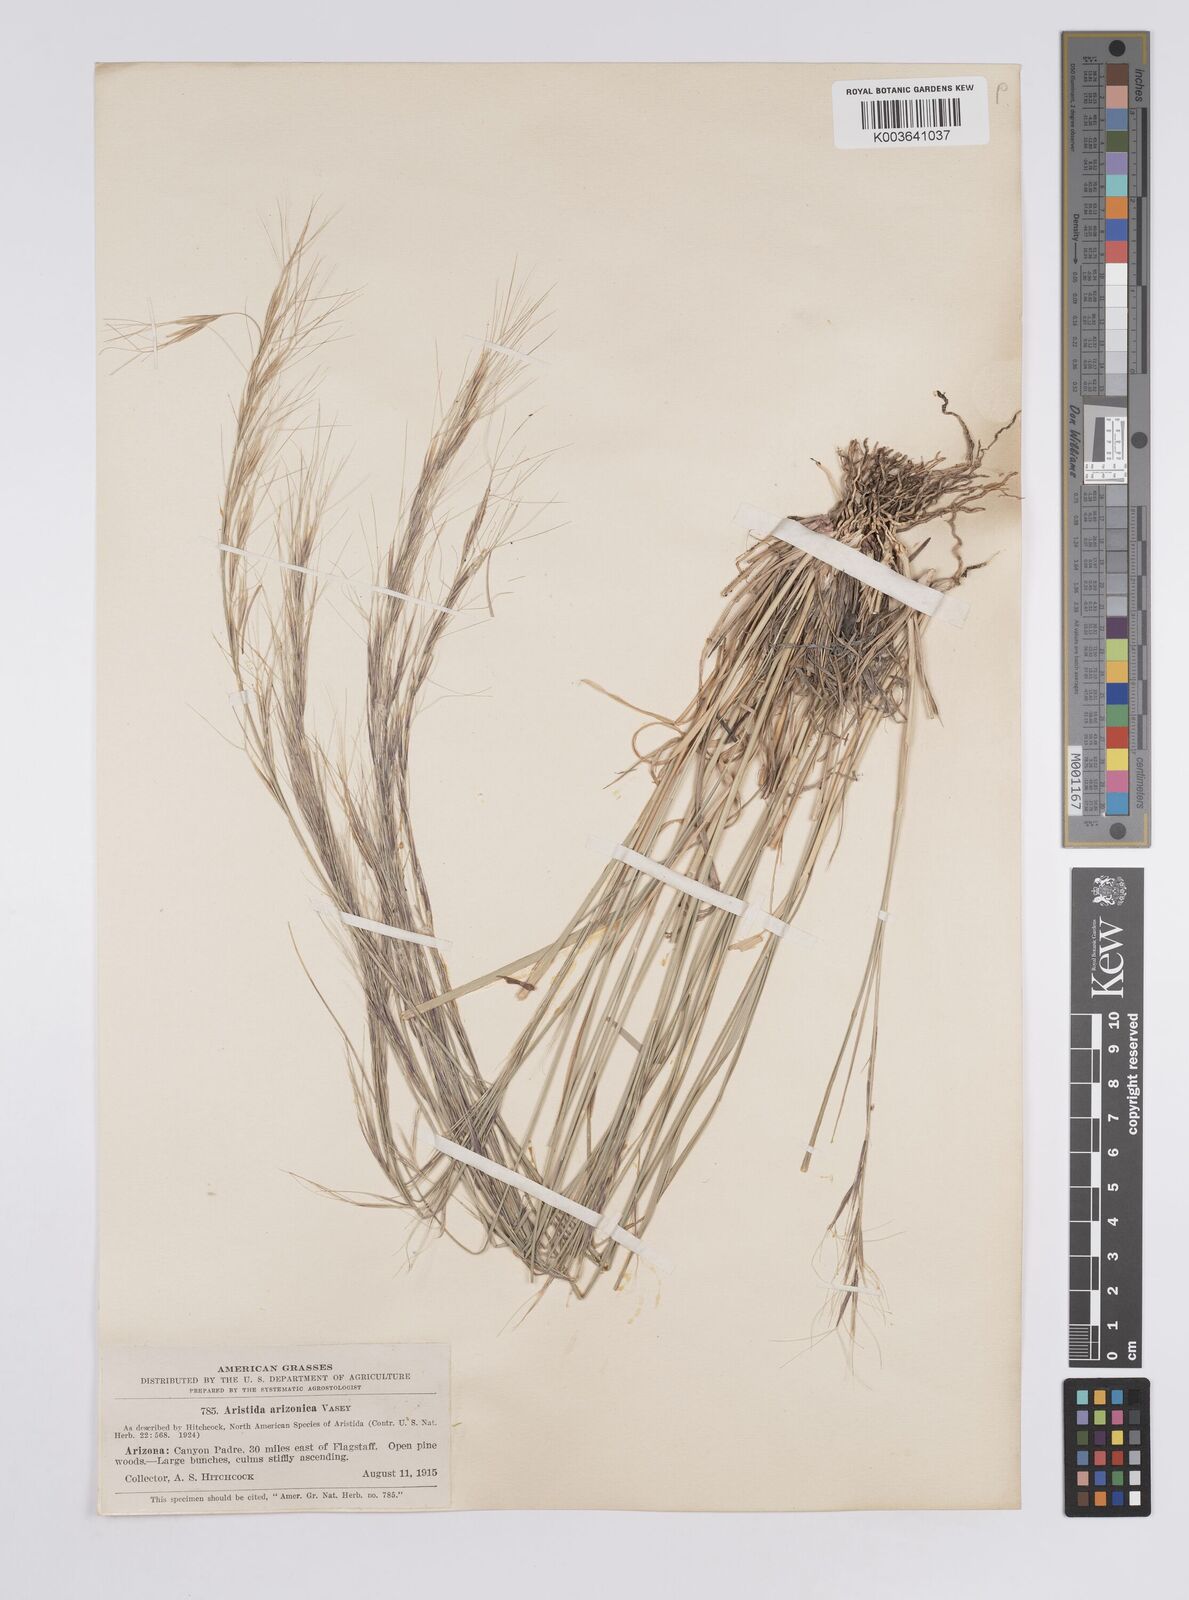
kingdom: Plantae
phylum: Tracheophyta
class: Liliopsida
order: Poales
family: Poaceae
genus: Aristida
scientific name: Aristida arizonica
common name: Arizona threeawn
